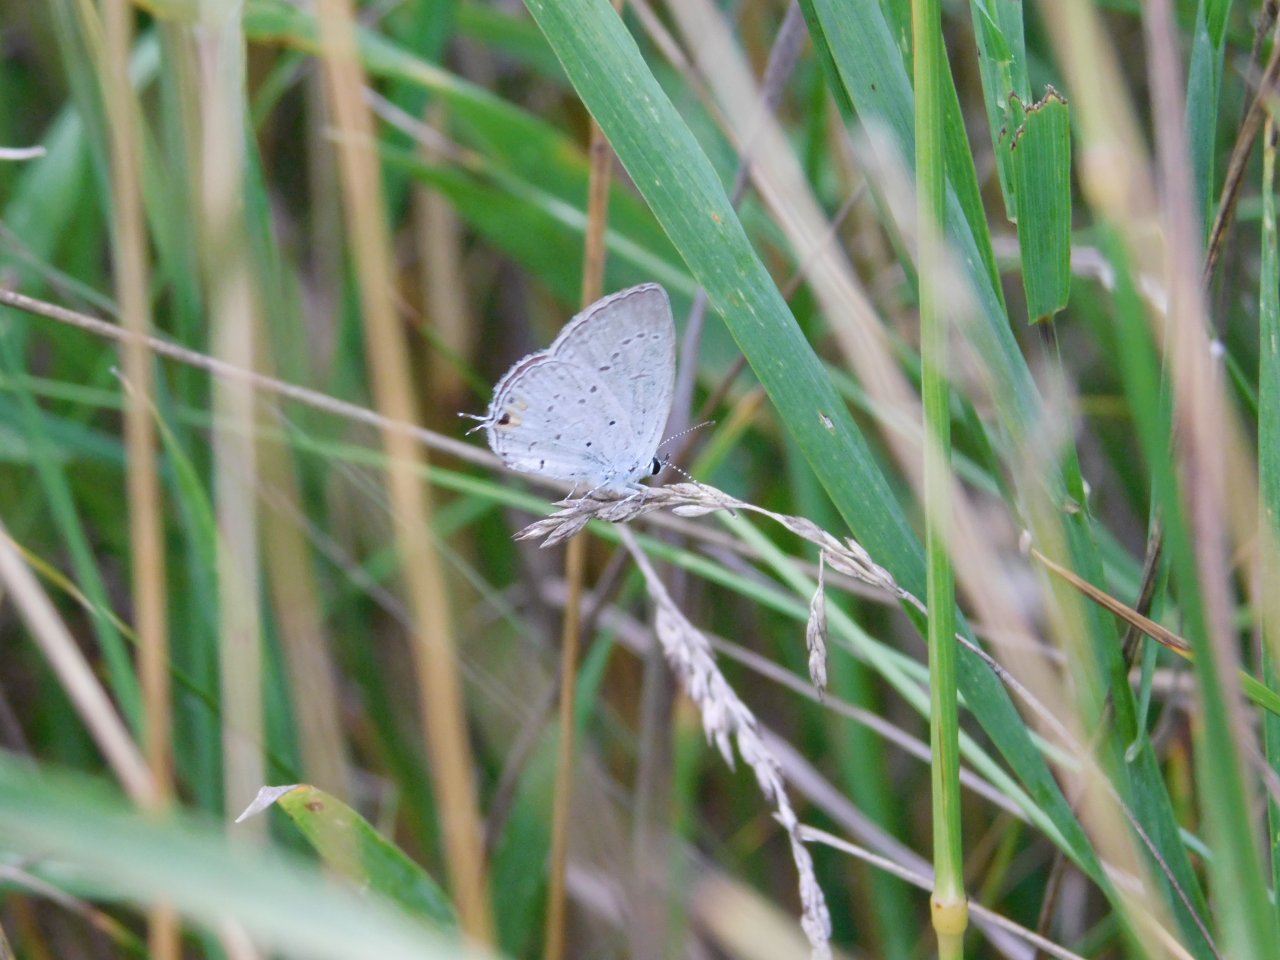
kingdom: Animalia
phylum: Arthropoda
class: Insecta
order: Lepidoptera
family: Lycaenidae
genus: Elkalyce
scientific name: Elkalyce comyntas
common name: Eastern Tailed-Blue
